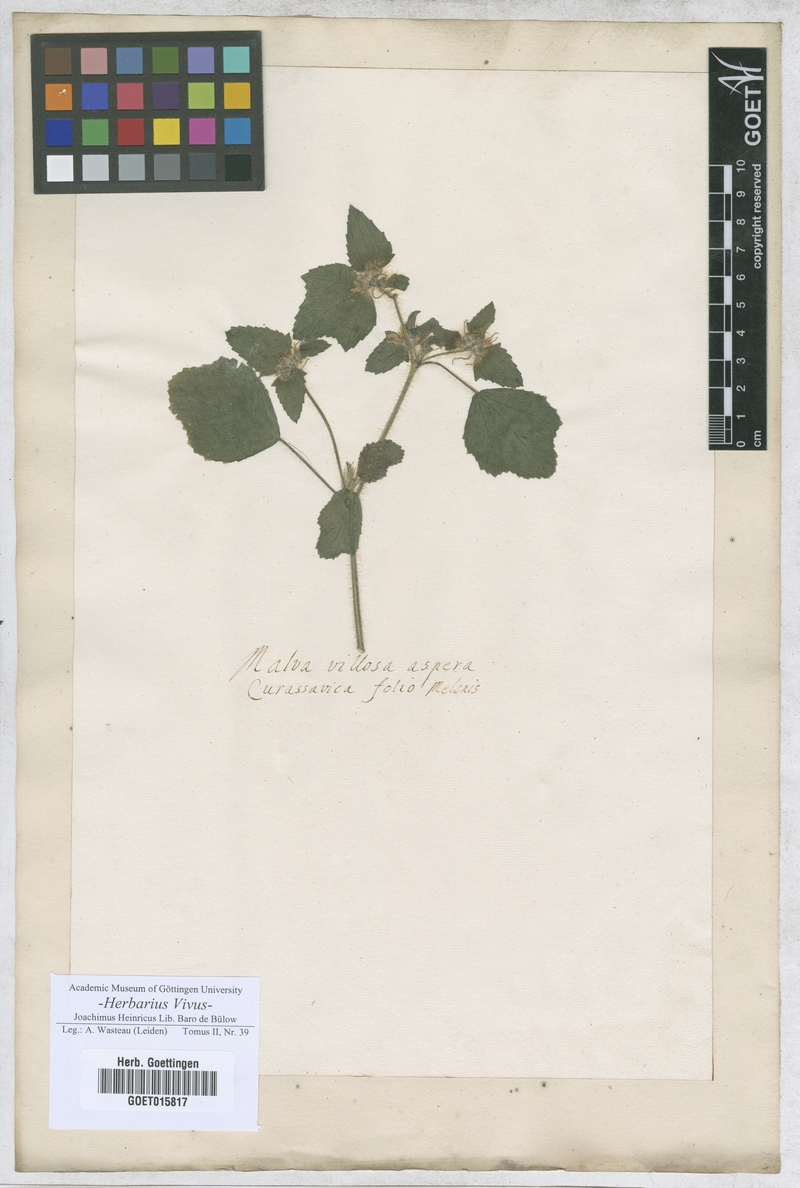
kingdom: Plantae
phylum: Tracheophyta
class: Magnoliopsida
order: Malvales
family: Malvaceae
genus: Malva
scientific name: Malva
